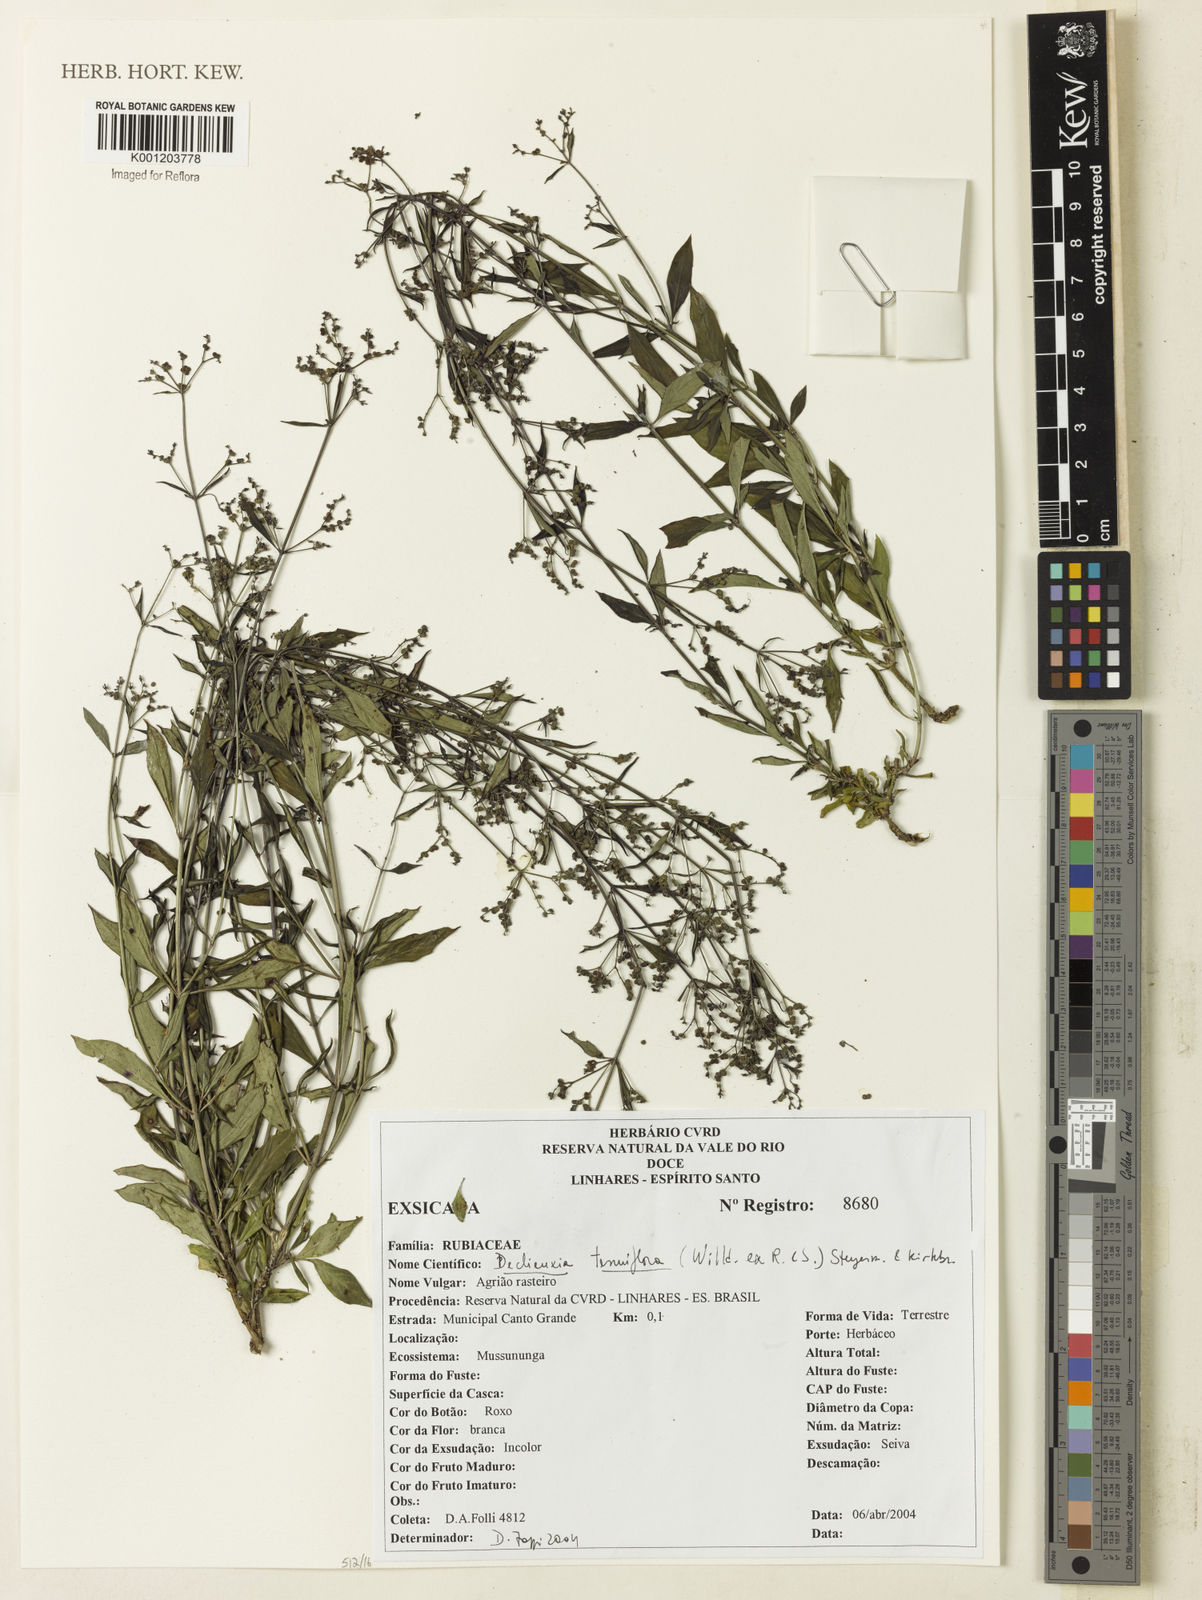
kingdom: Plantae
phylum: Tracheophyta
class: Magnoliopsida
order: Gentianales
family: Rubiaceae
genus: Declieuxia
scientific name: Declieuxia tenuiflora
